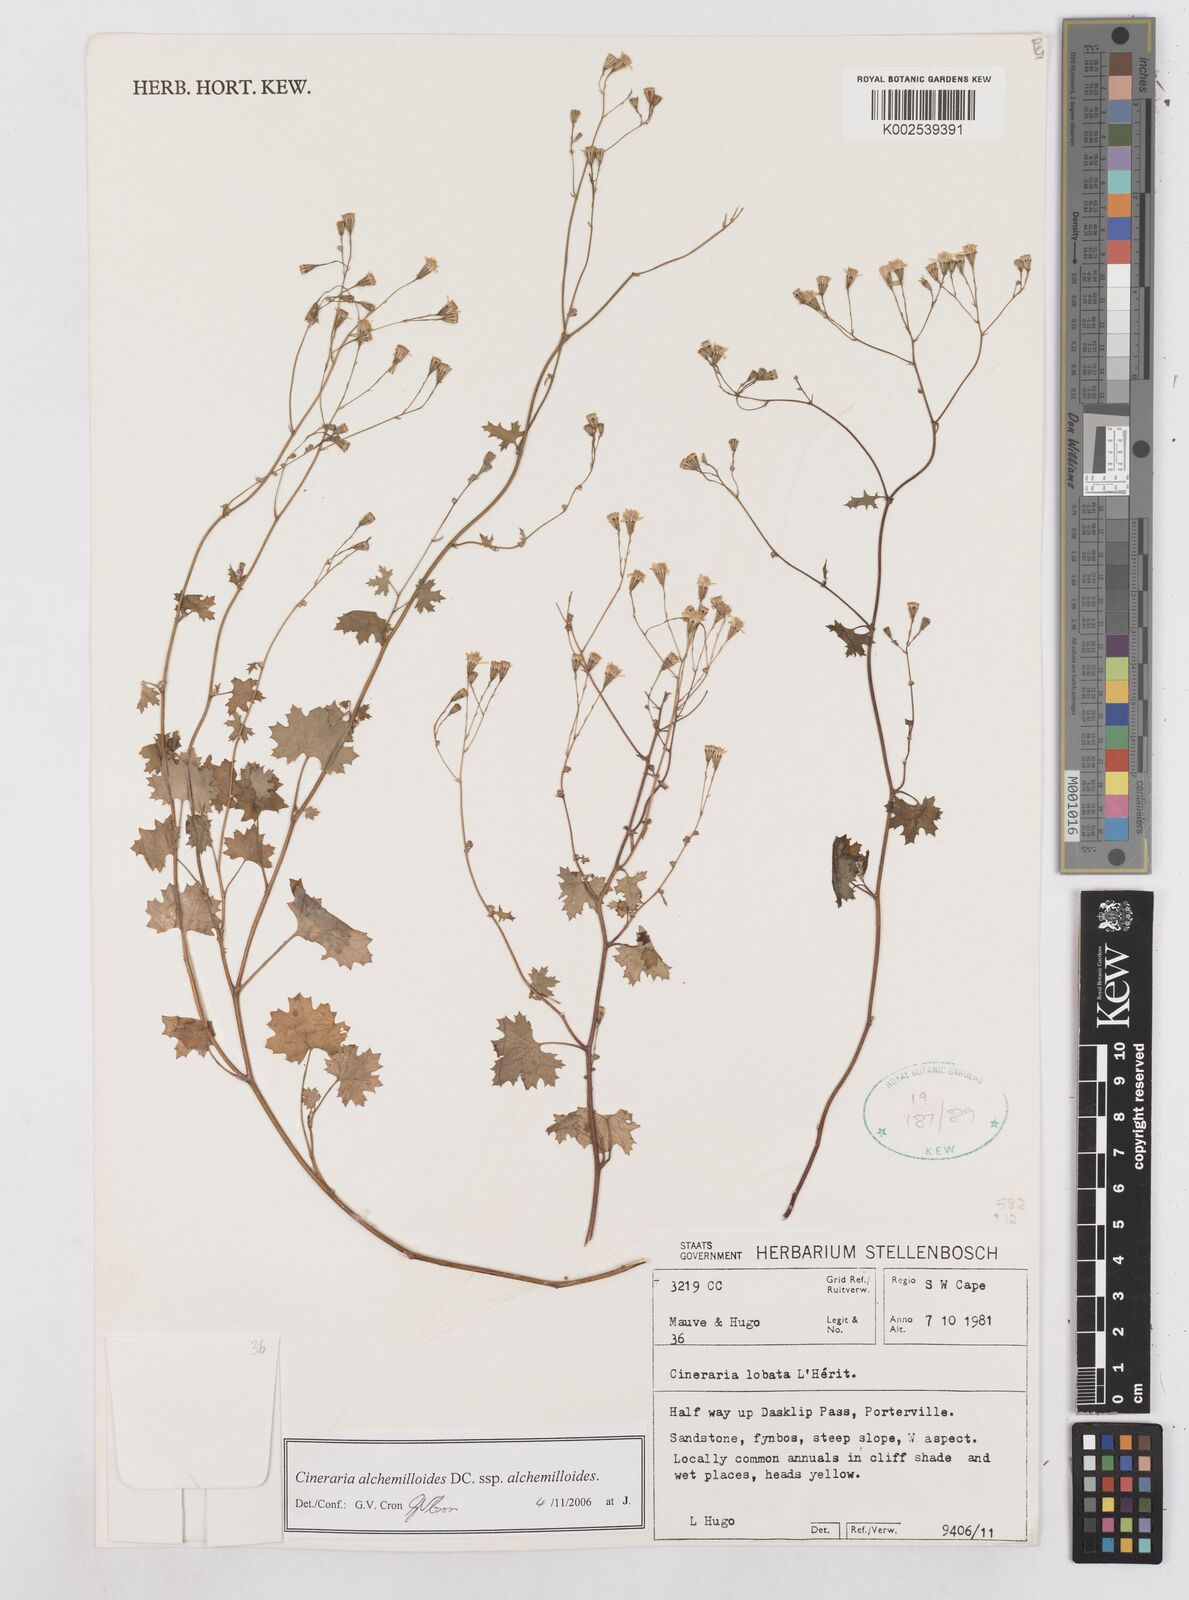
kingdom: Plantae
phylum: Tracheophyta
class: Magnoliopsida
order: Asterales
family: Asteraceae
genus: Cineraria
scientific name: Cineraria alchemilloides
